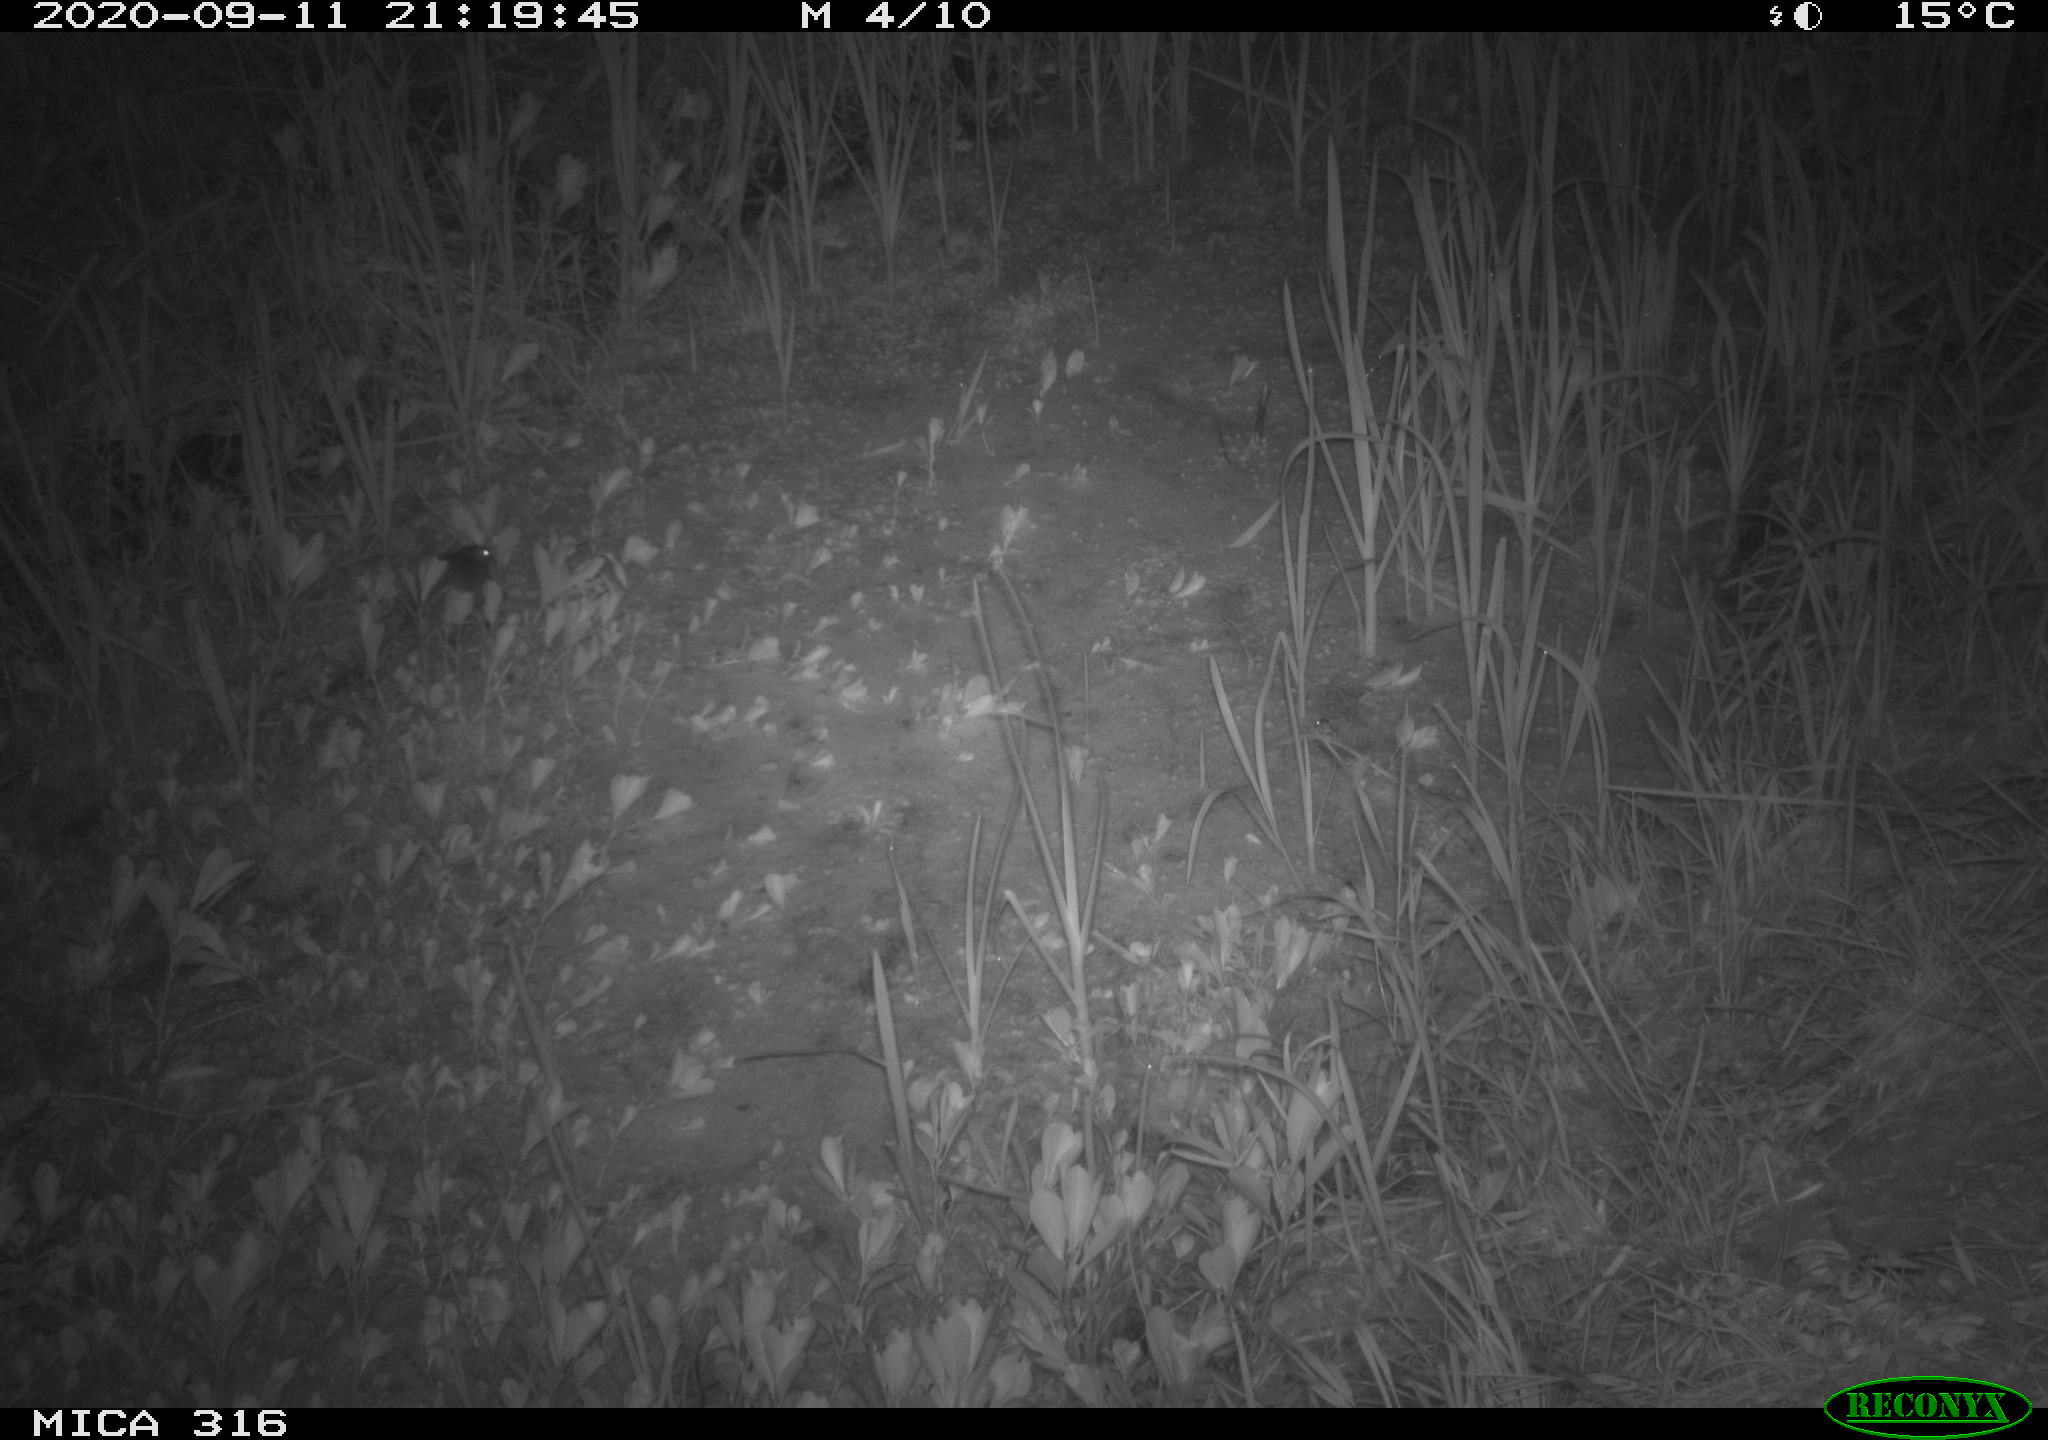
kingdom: Animalia
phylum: Chordata
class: Mammalia
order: Rodentia
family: Muridae
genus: Rattus
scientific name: Rattus norvegicus
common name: Brown rat
